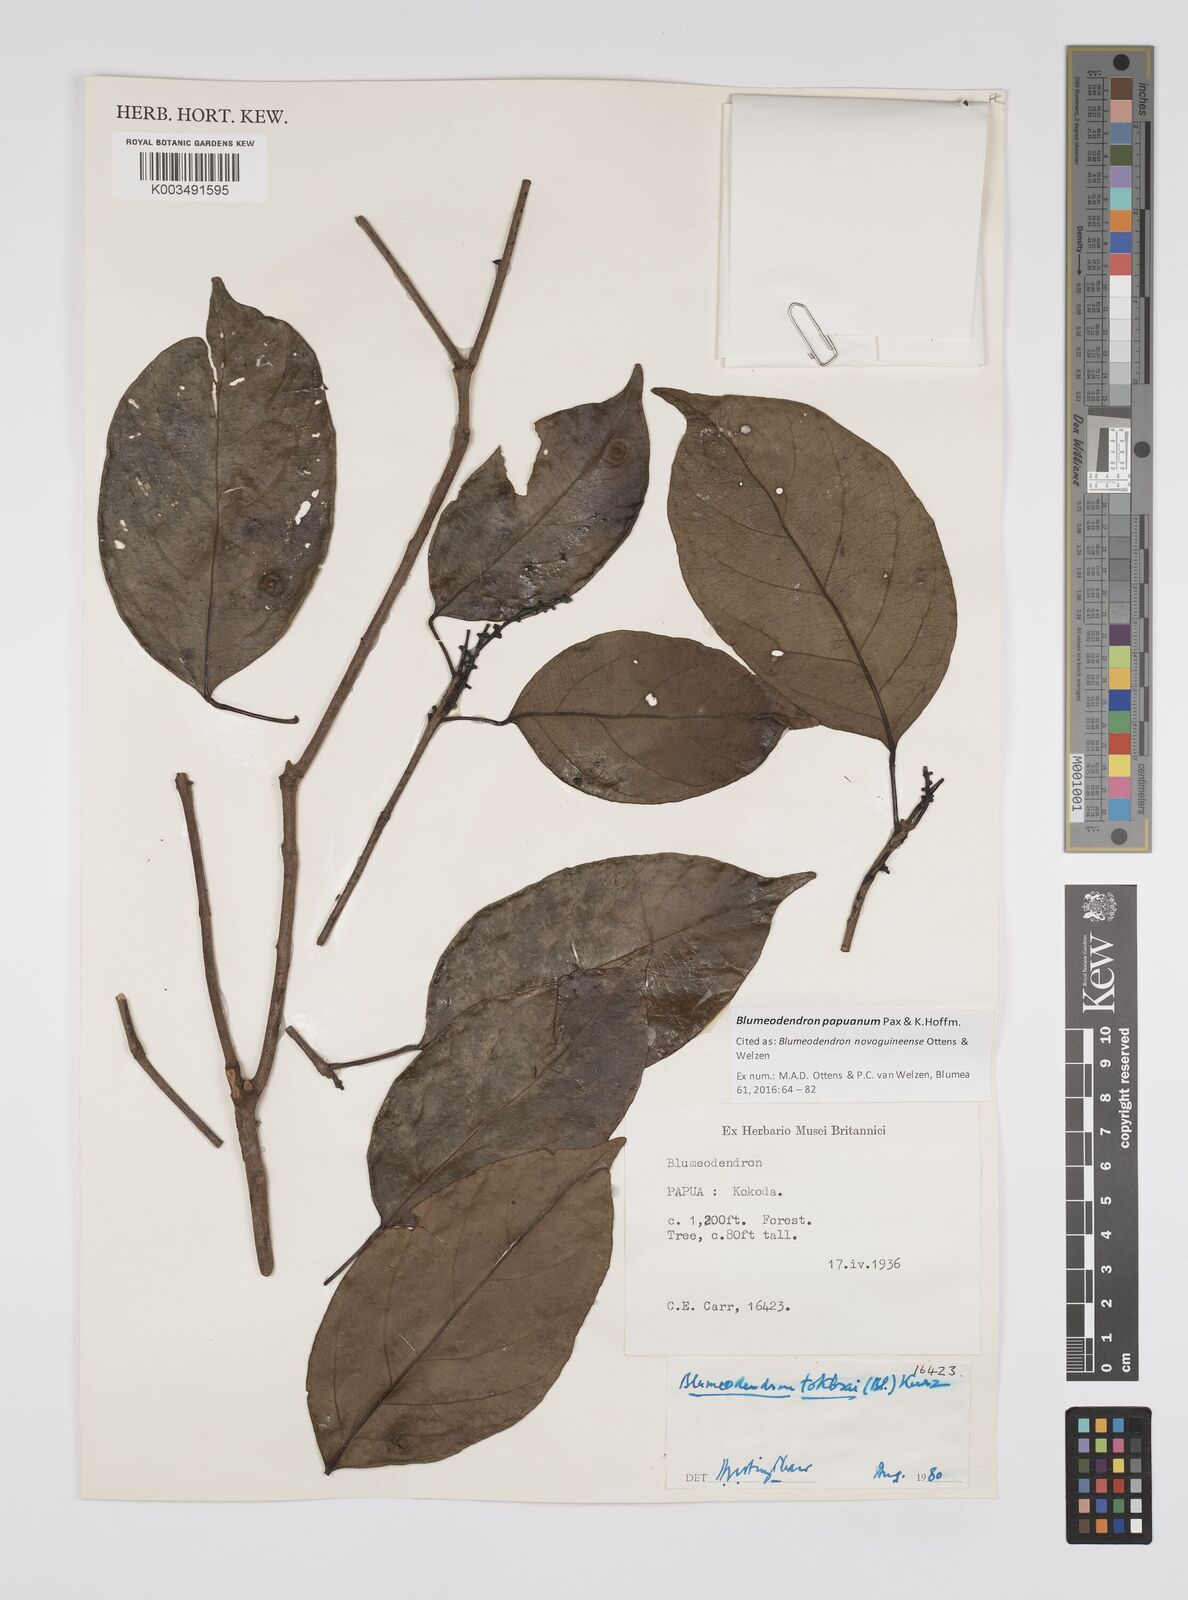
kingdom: Plantae
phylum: Tracheophyta
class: Magnoliopsida
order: Malpighiales
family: Euphorbiaceae
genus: Blumeodendron
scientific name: Blumeodendron papuanum
